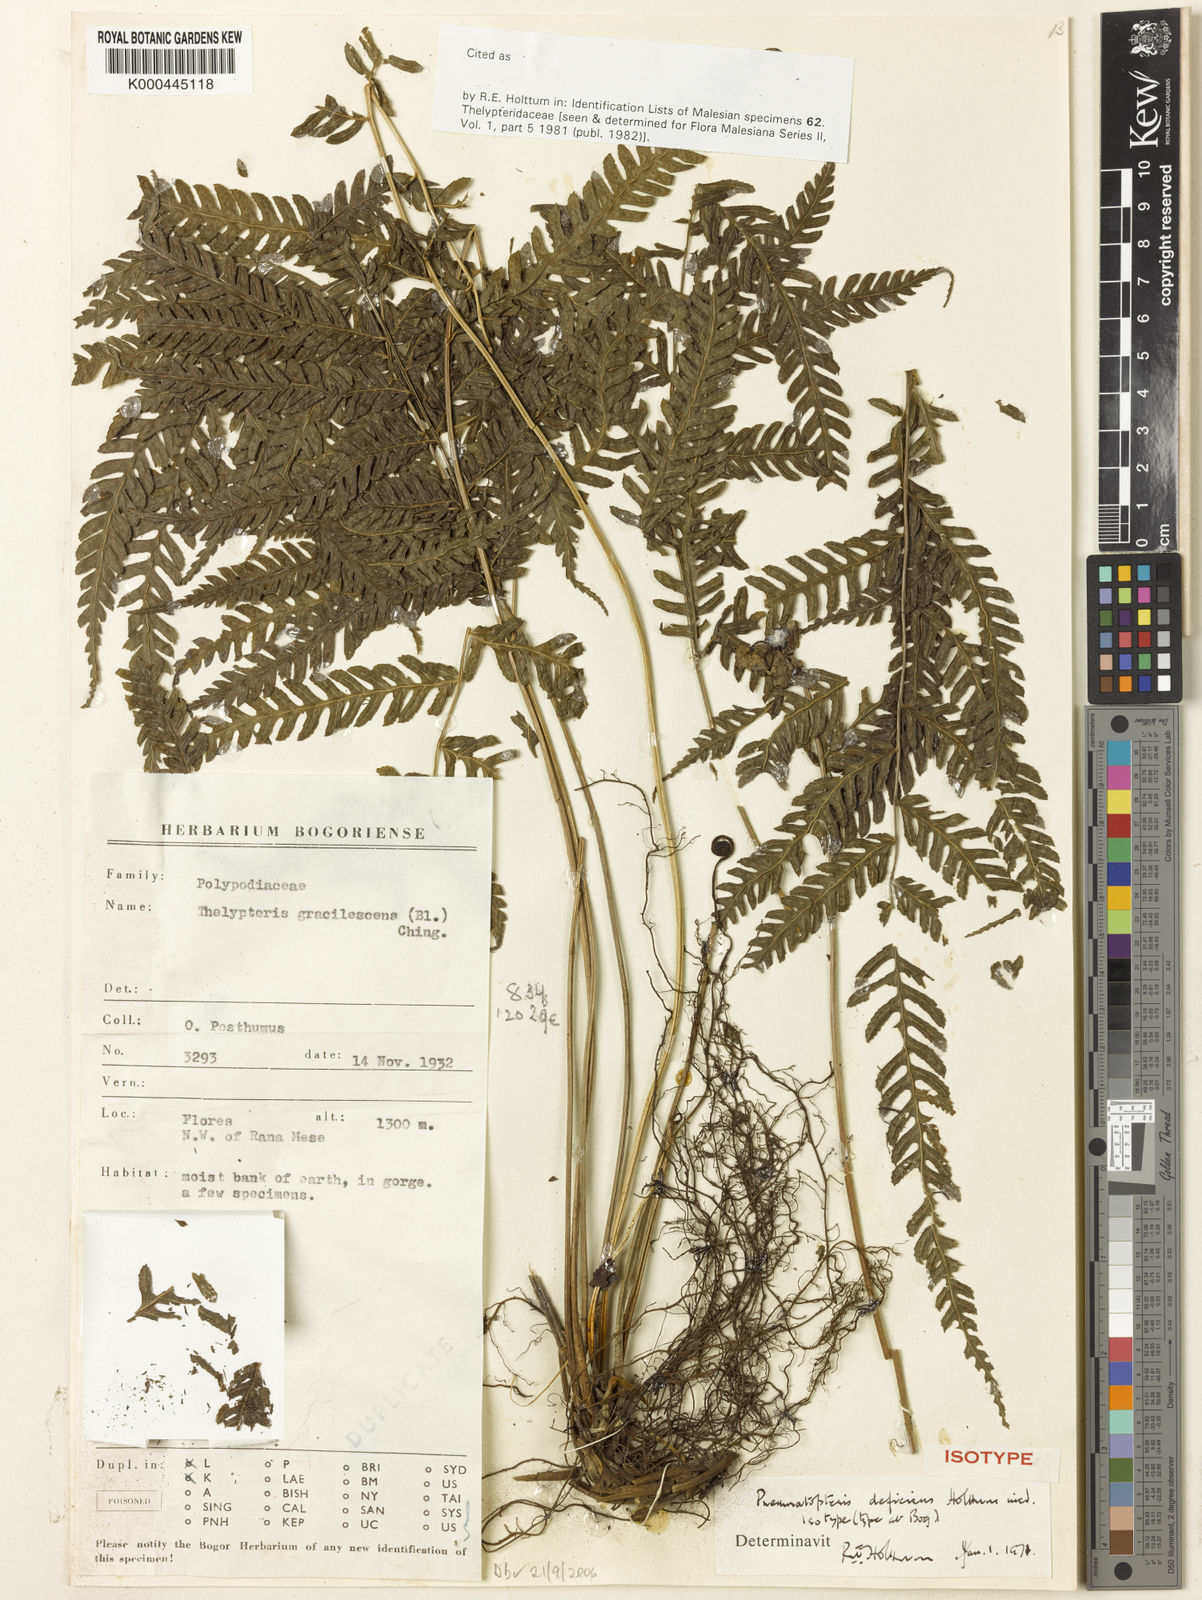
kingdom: Plantae
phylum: Tracheophyta
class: Polypodiopsida
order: Polypodiales
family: Thelypteridaceae
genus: Plesioneuron
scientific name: Plesioneuron deficiens
